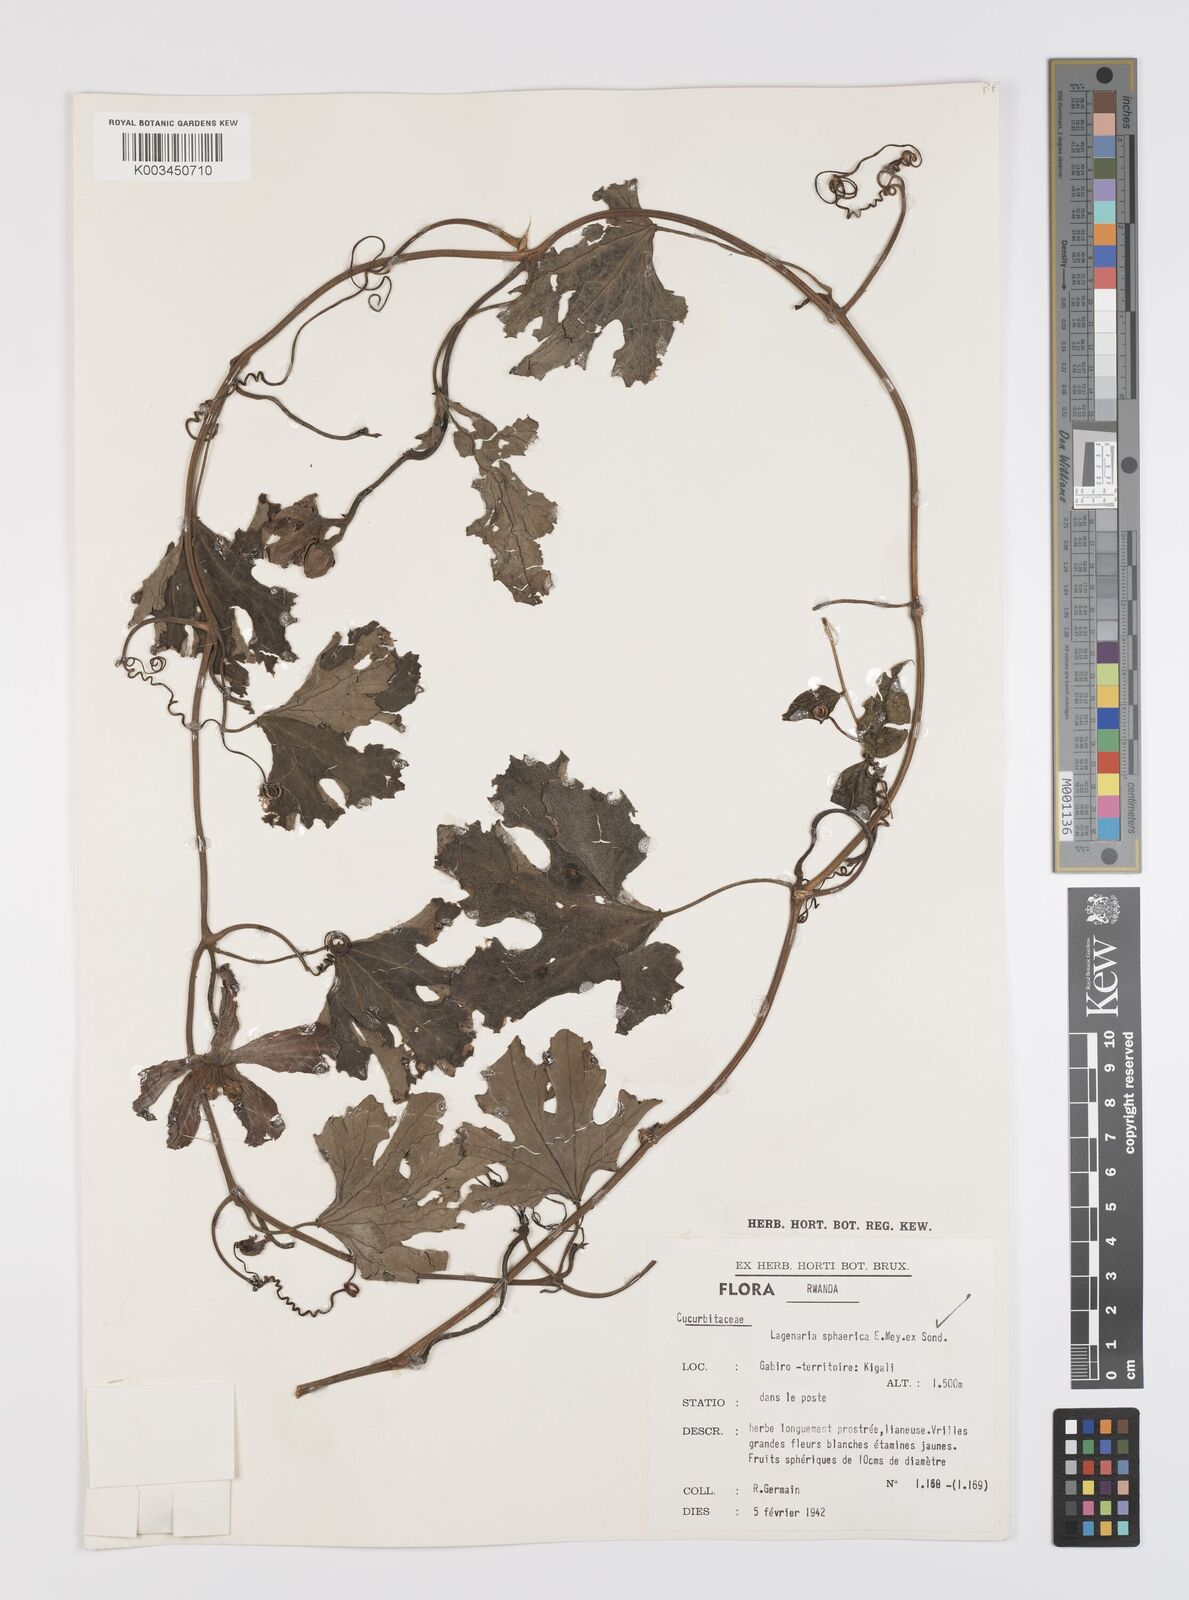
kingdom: Plantae
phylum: Tracheophyta
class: Magnoliopsida
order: Cucurbitales
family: Cucurbitaceae
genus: Lagenaria
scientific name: Lagenaria sphaerica
